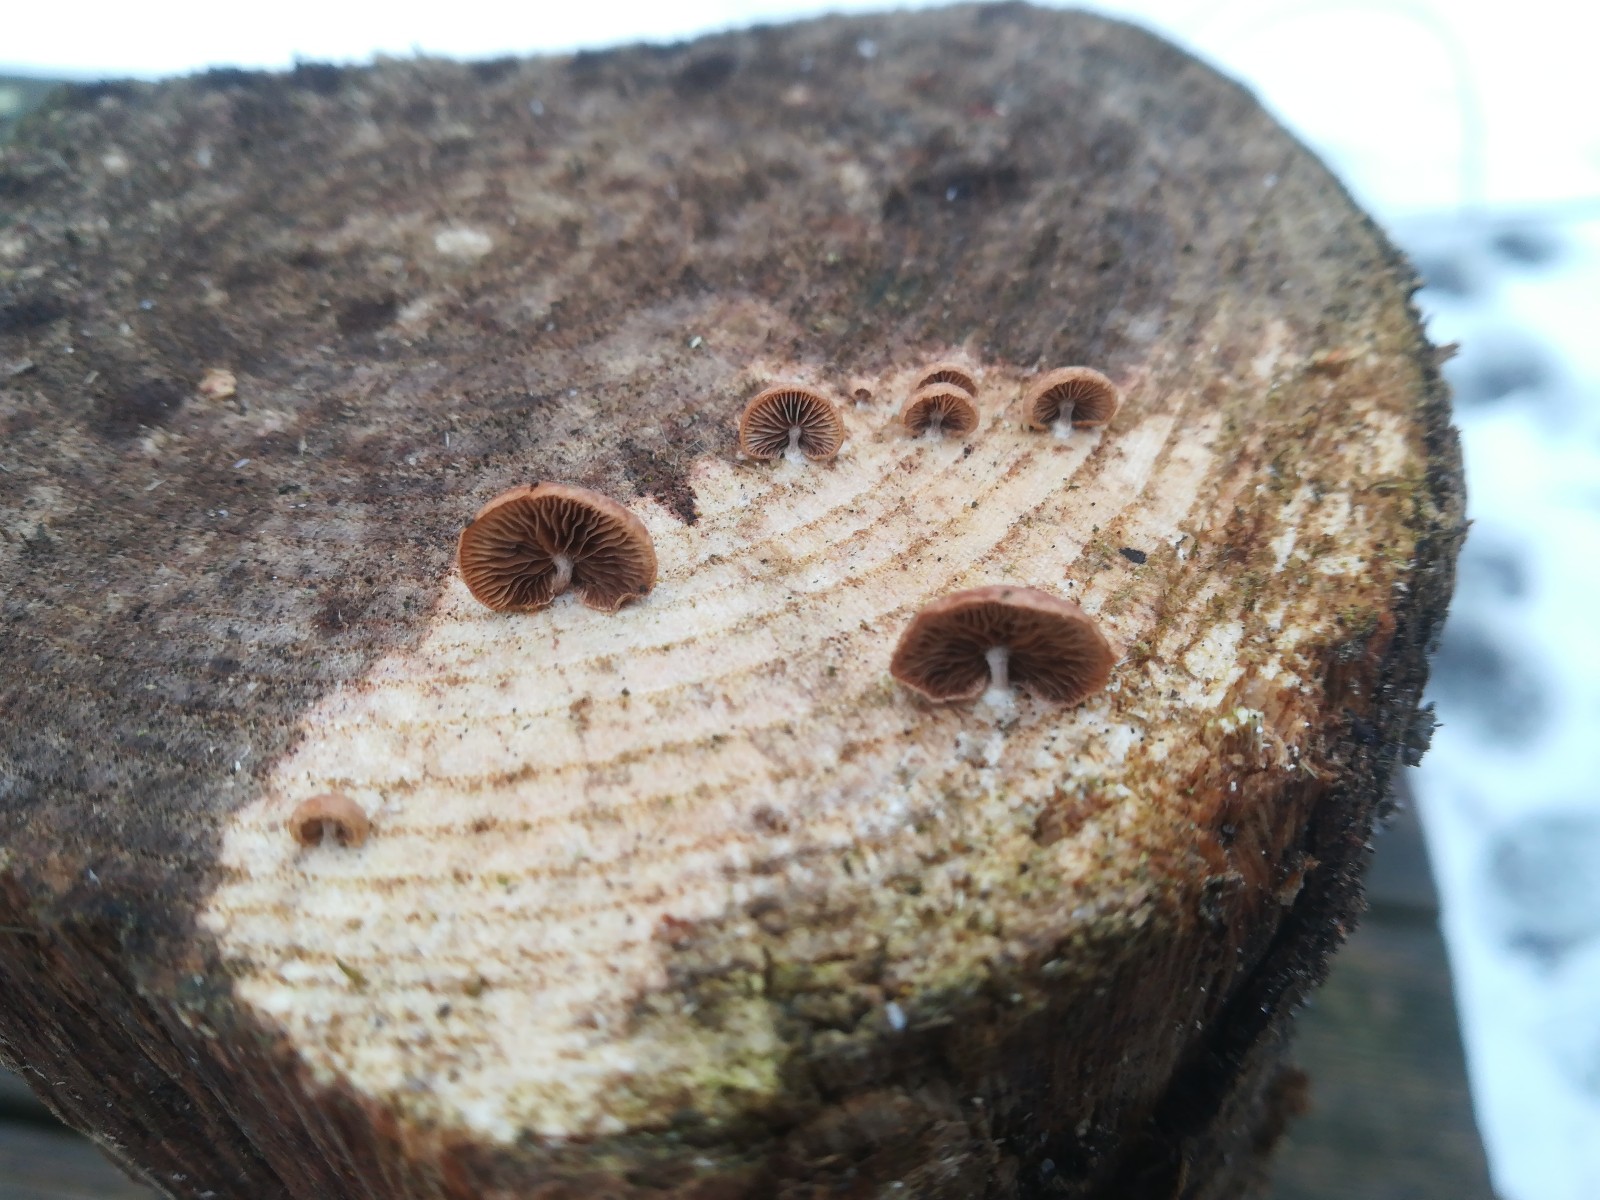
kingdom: Fungi
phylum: Basidiomycota
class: Agaricomycetes
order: Agaricales
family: Strophariaceae
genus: Deconica
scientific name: Deconica horizontalis
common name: ved-stråhat
